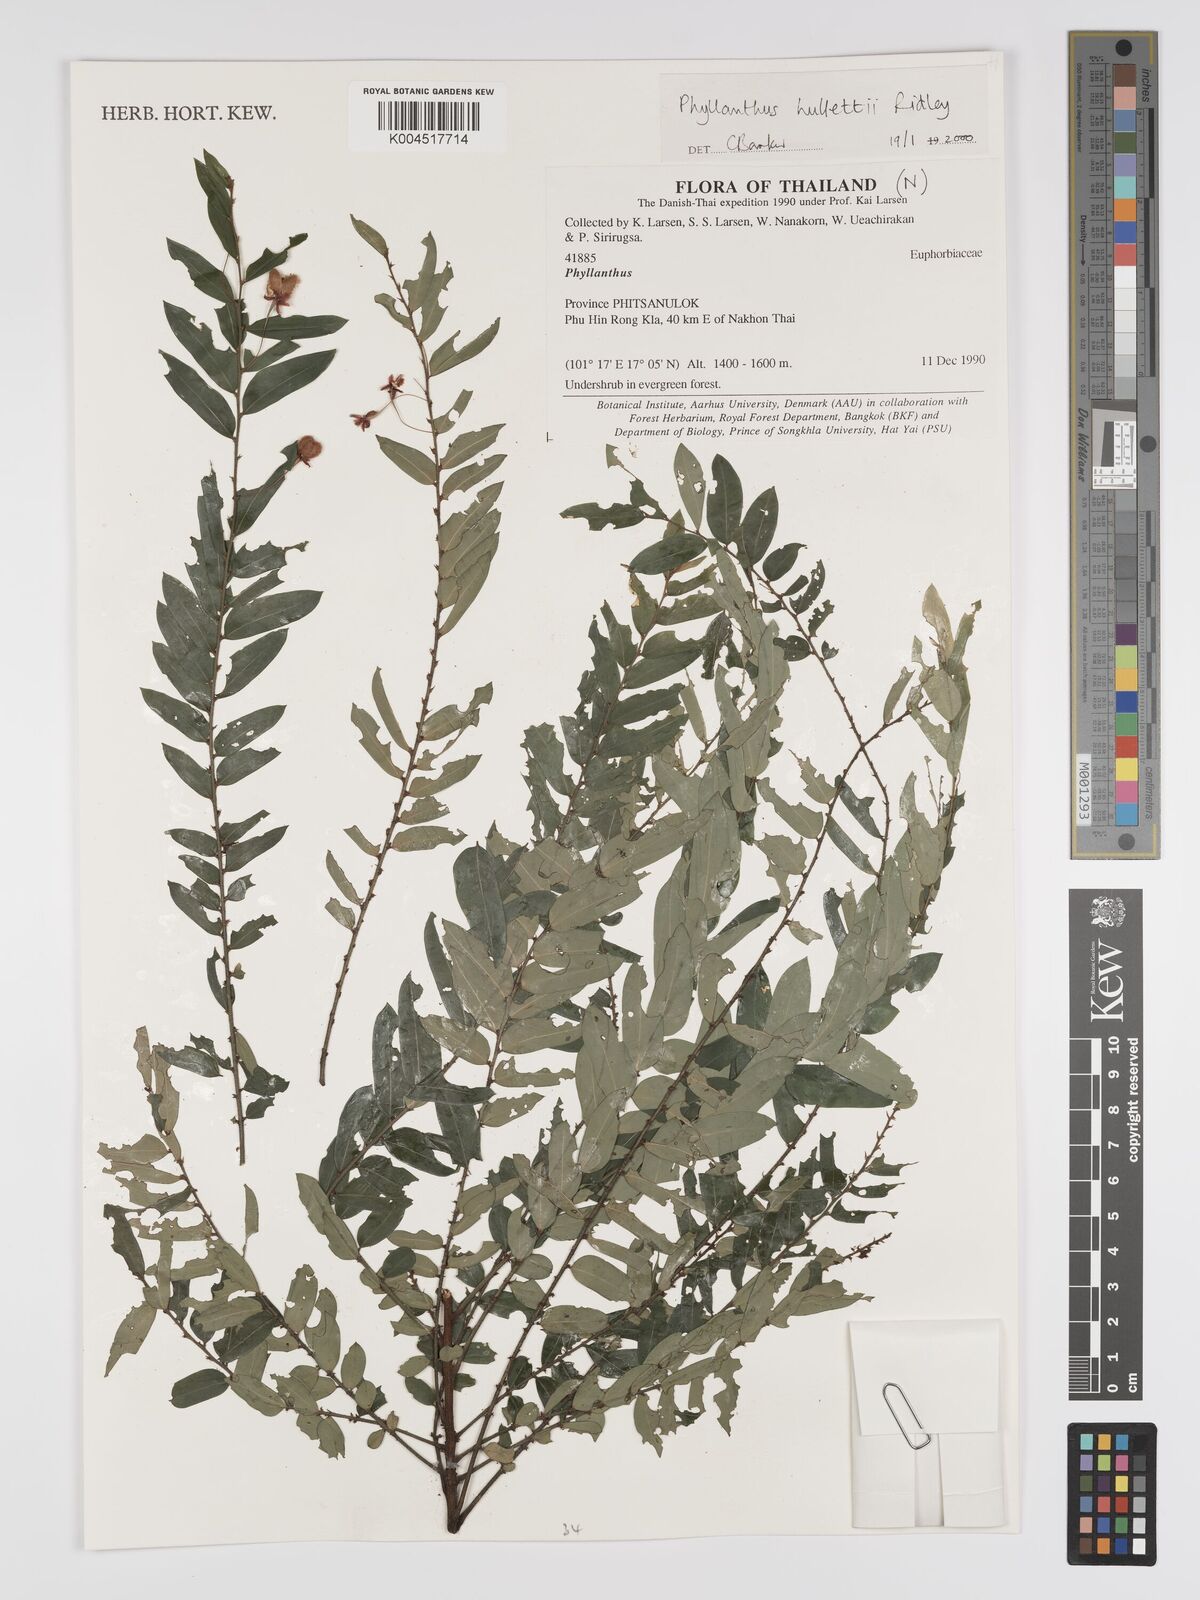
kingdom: Plantae
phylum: Tracheophyta
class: Magnoliopsida
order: Malpighiales
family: Phyllanthaceae
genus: Phyllanthus
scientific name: Phyllanthus gracilipes
